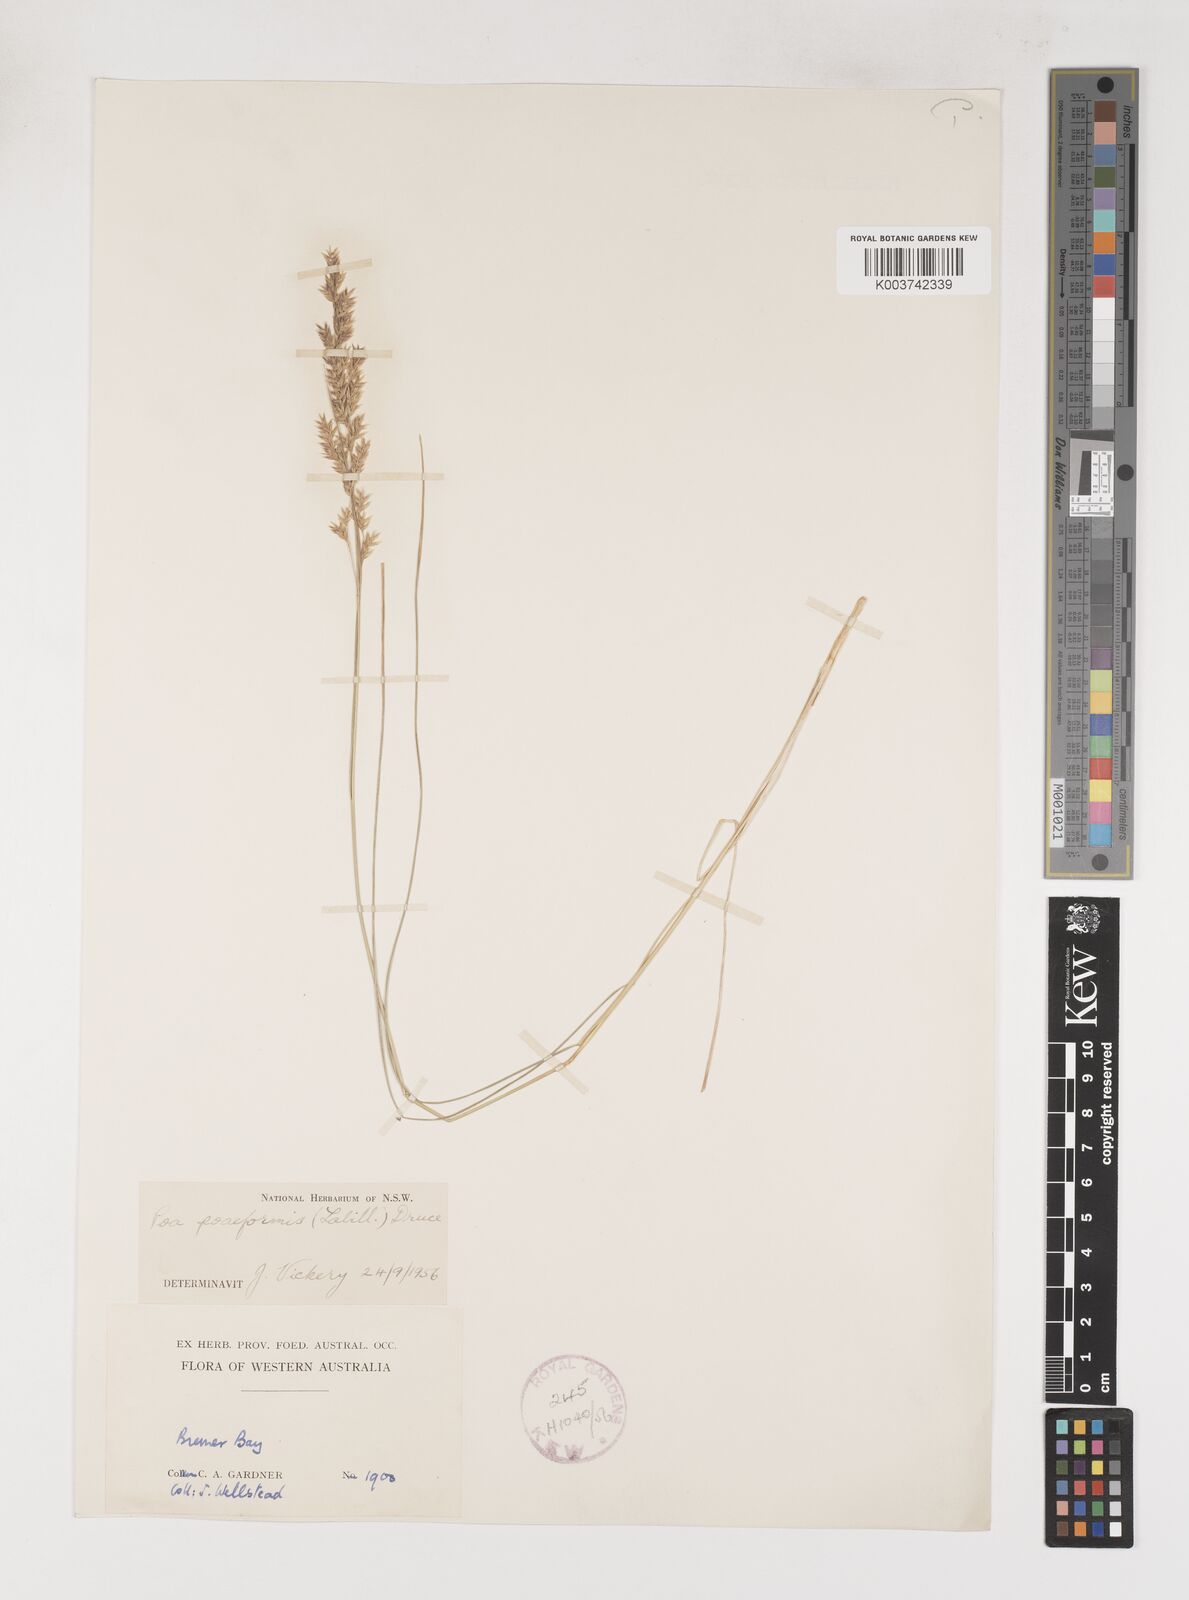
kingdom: Plantae
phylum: Tracheophyta
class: Liliopsida
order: Poales
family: Poaceae
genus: Poa
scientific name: Poa poiformis
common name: Tussock poa
